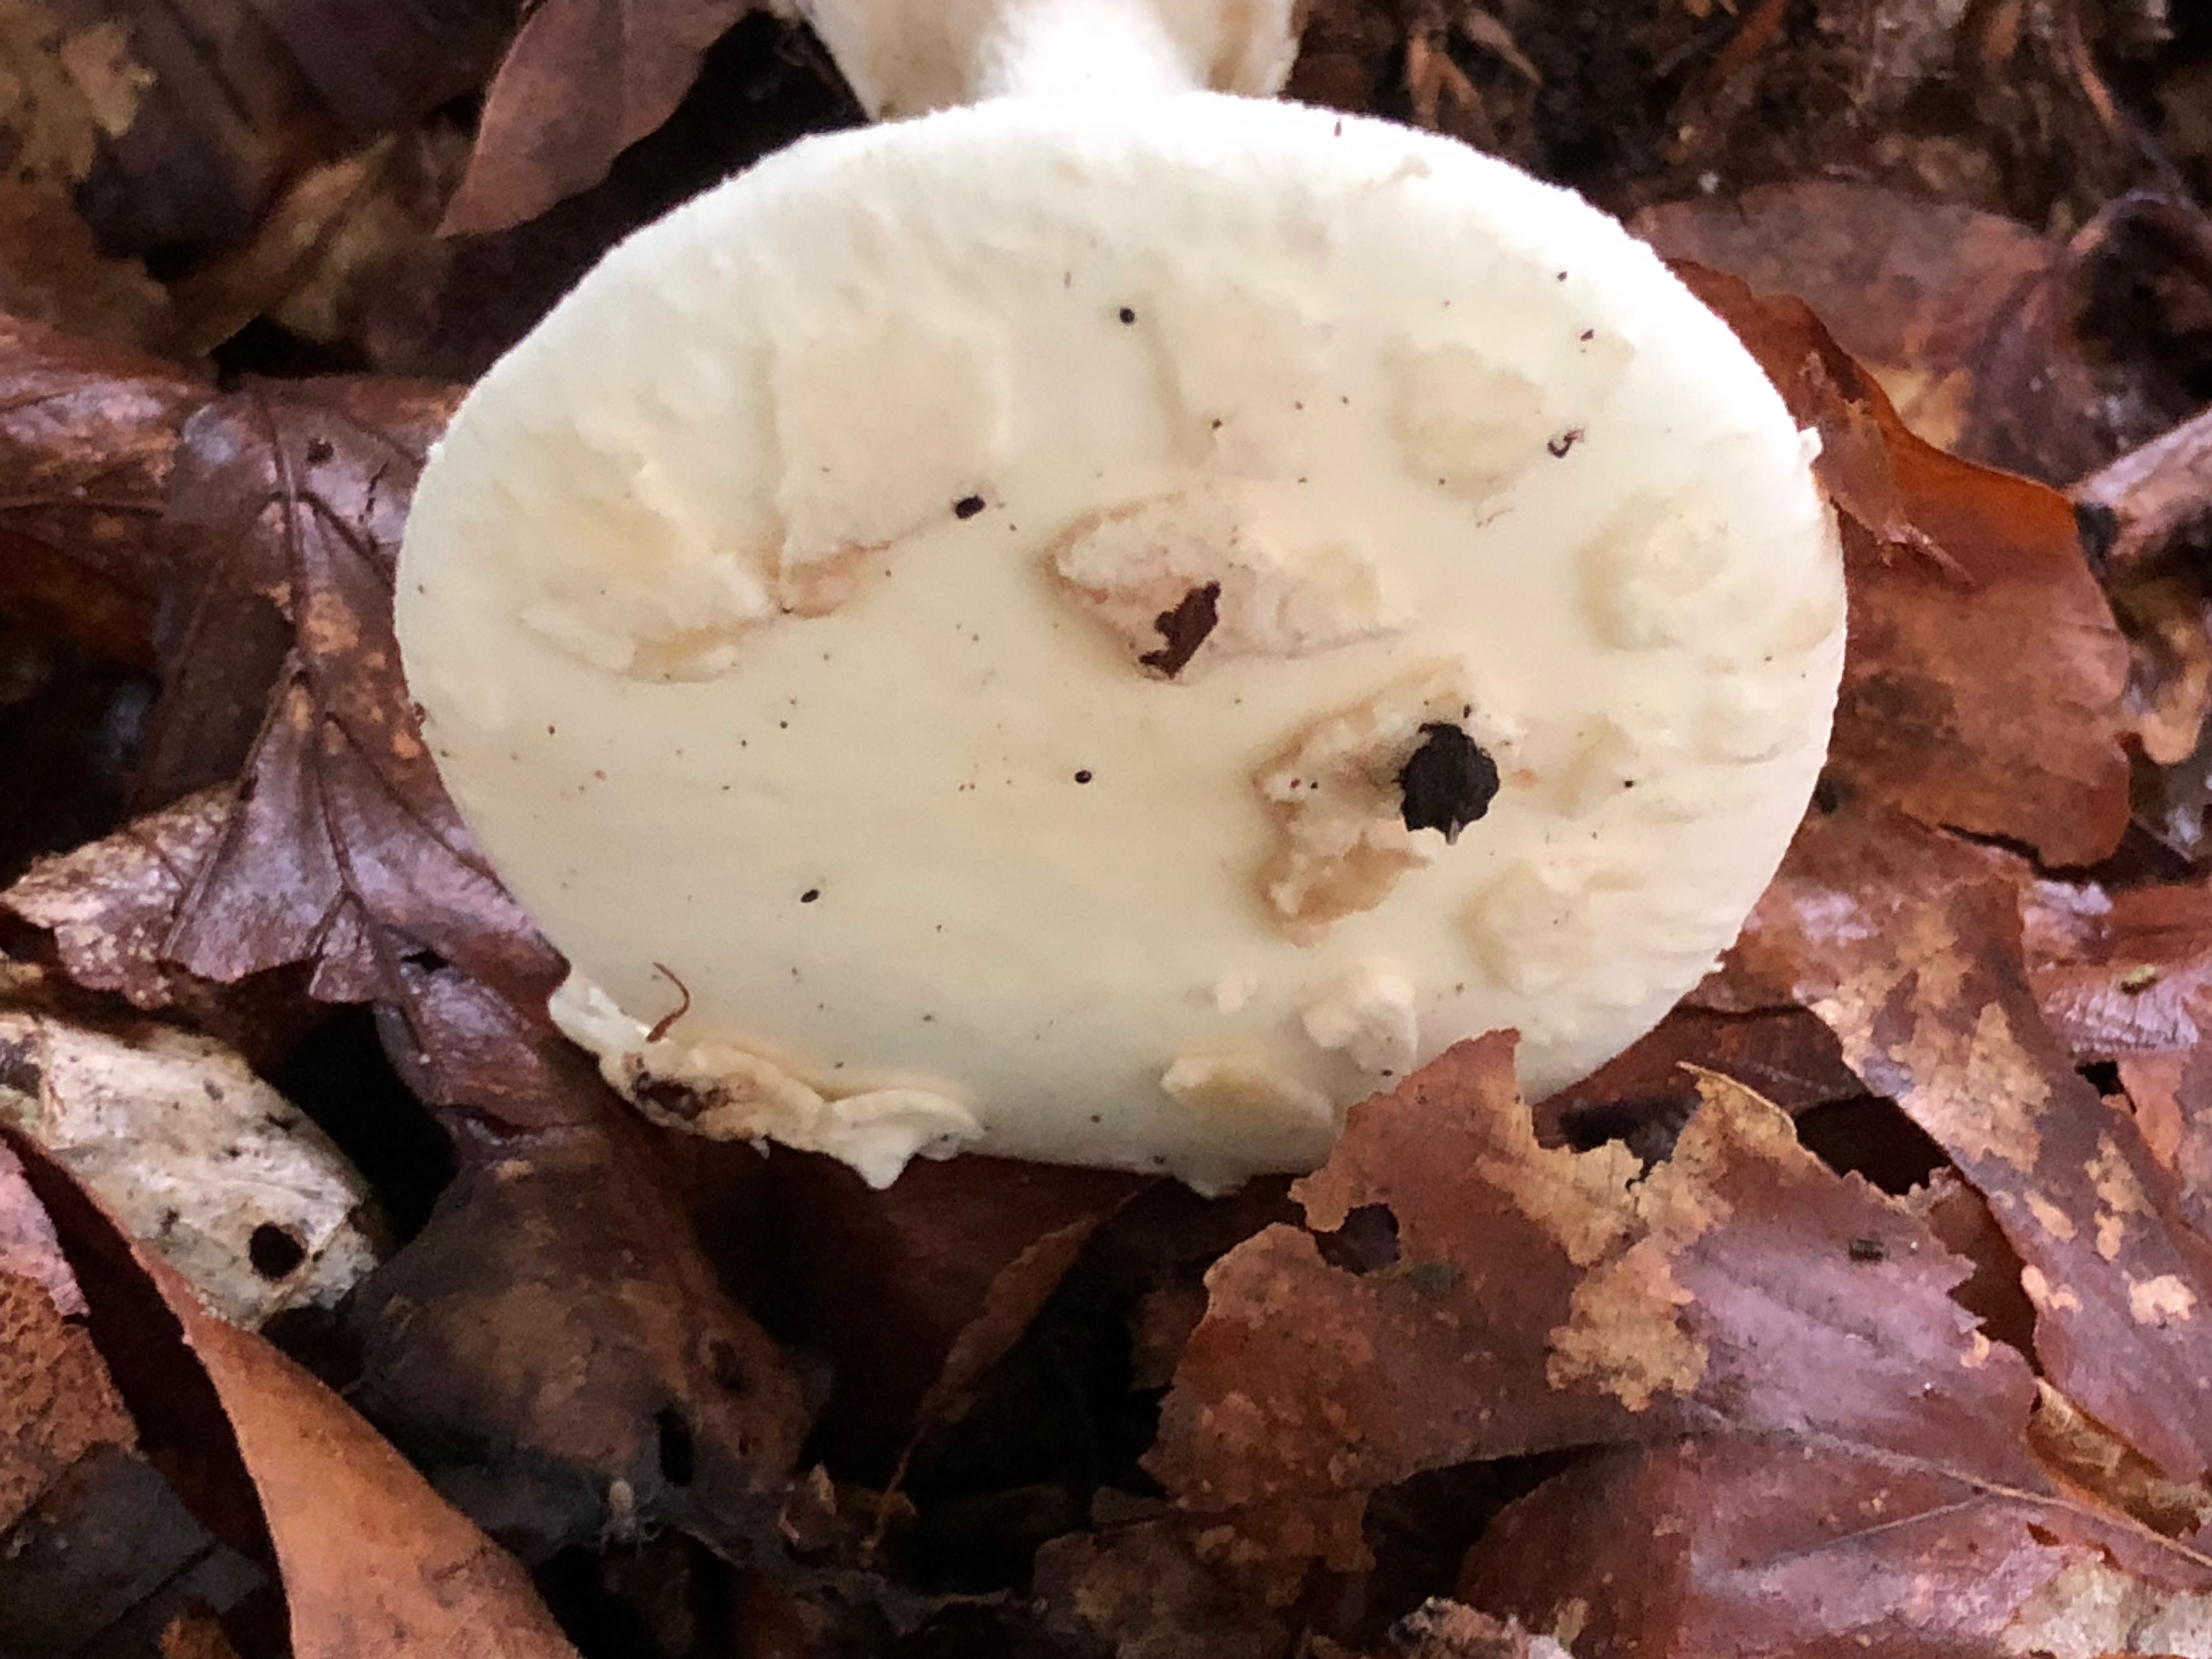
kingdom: Fungi
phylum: Basidiomycota
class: Agaricomycetes
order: Agaricales
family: Amanitaceae
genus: Amanita
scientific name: Amanita citrina
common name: kugleknoldet fluesvamp
